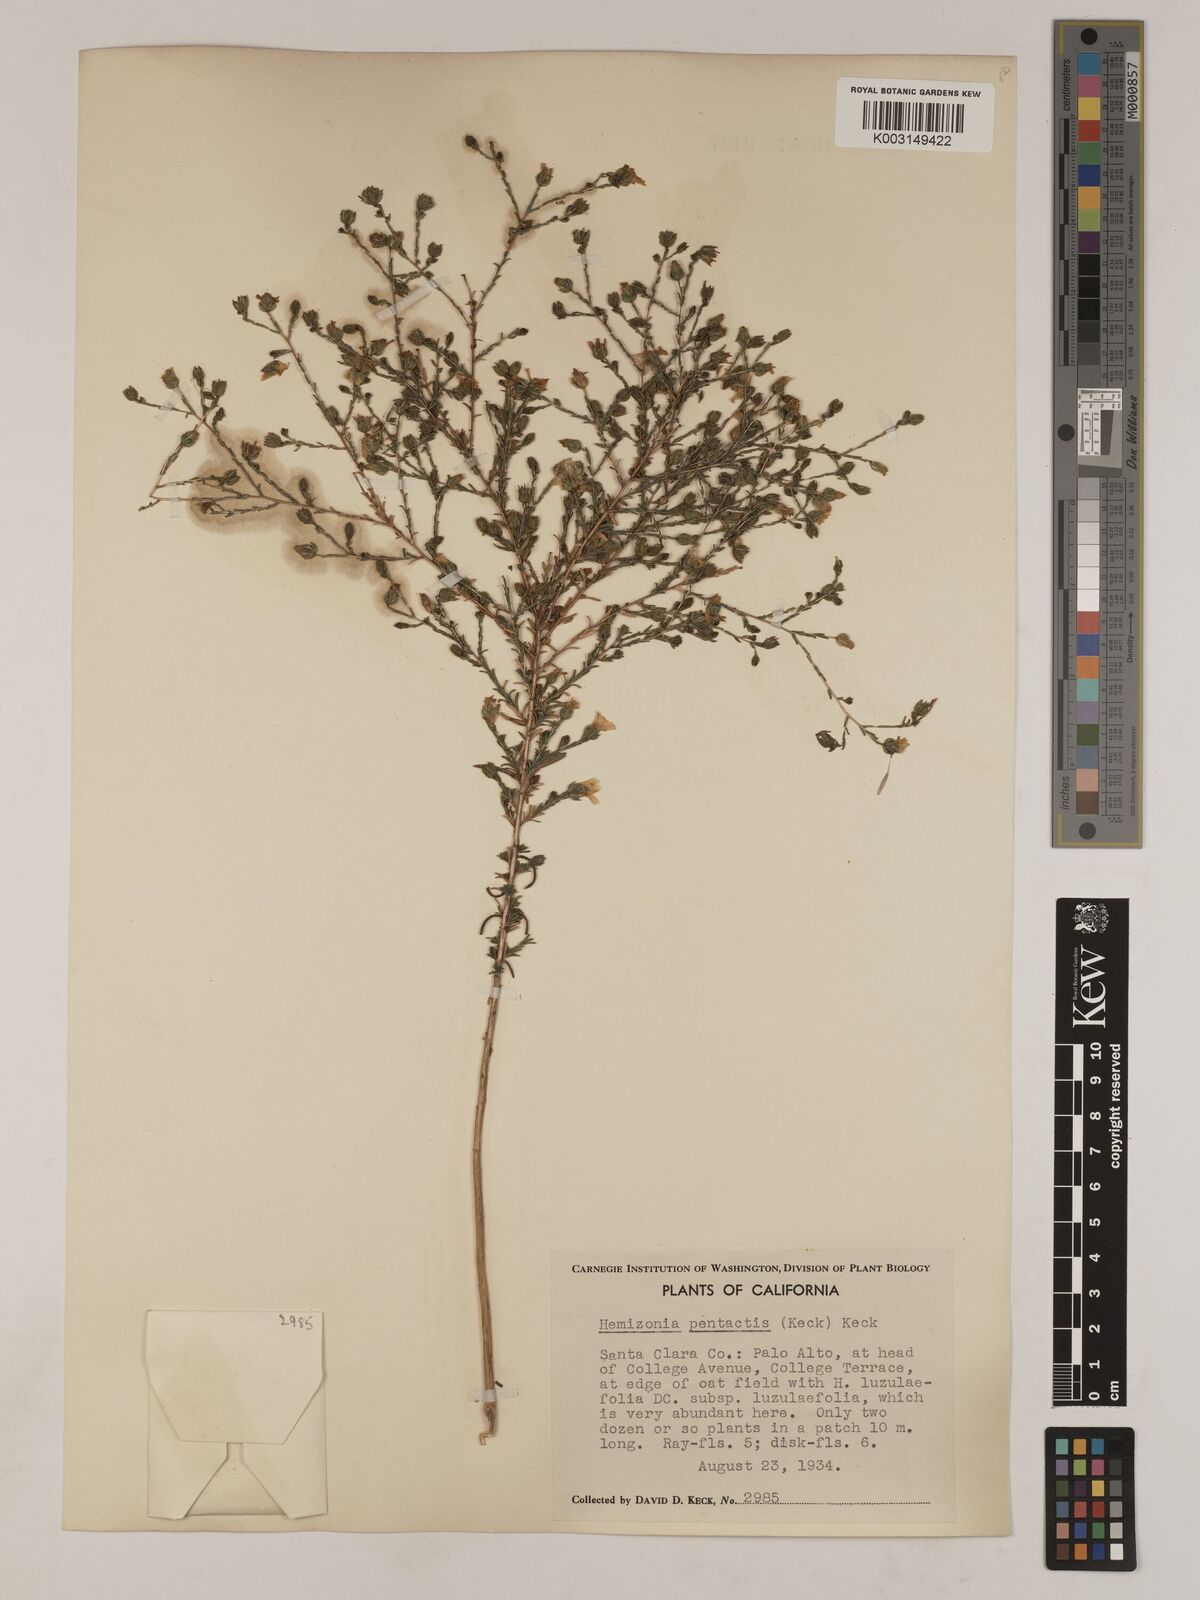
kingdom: Plantae
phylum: Tracheophyta
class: Magnoliopsida
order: Asterales
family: Asteraceae
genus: Deinandra
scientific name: Deinandra pentactis
